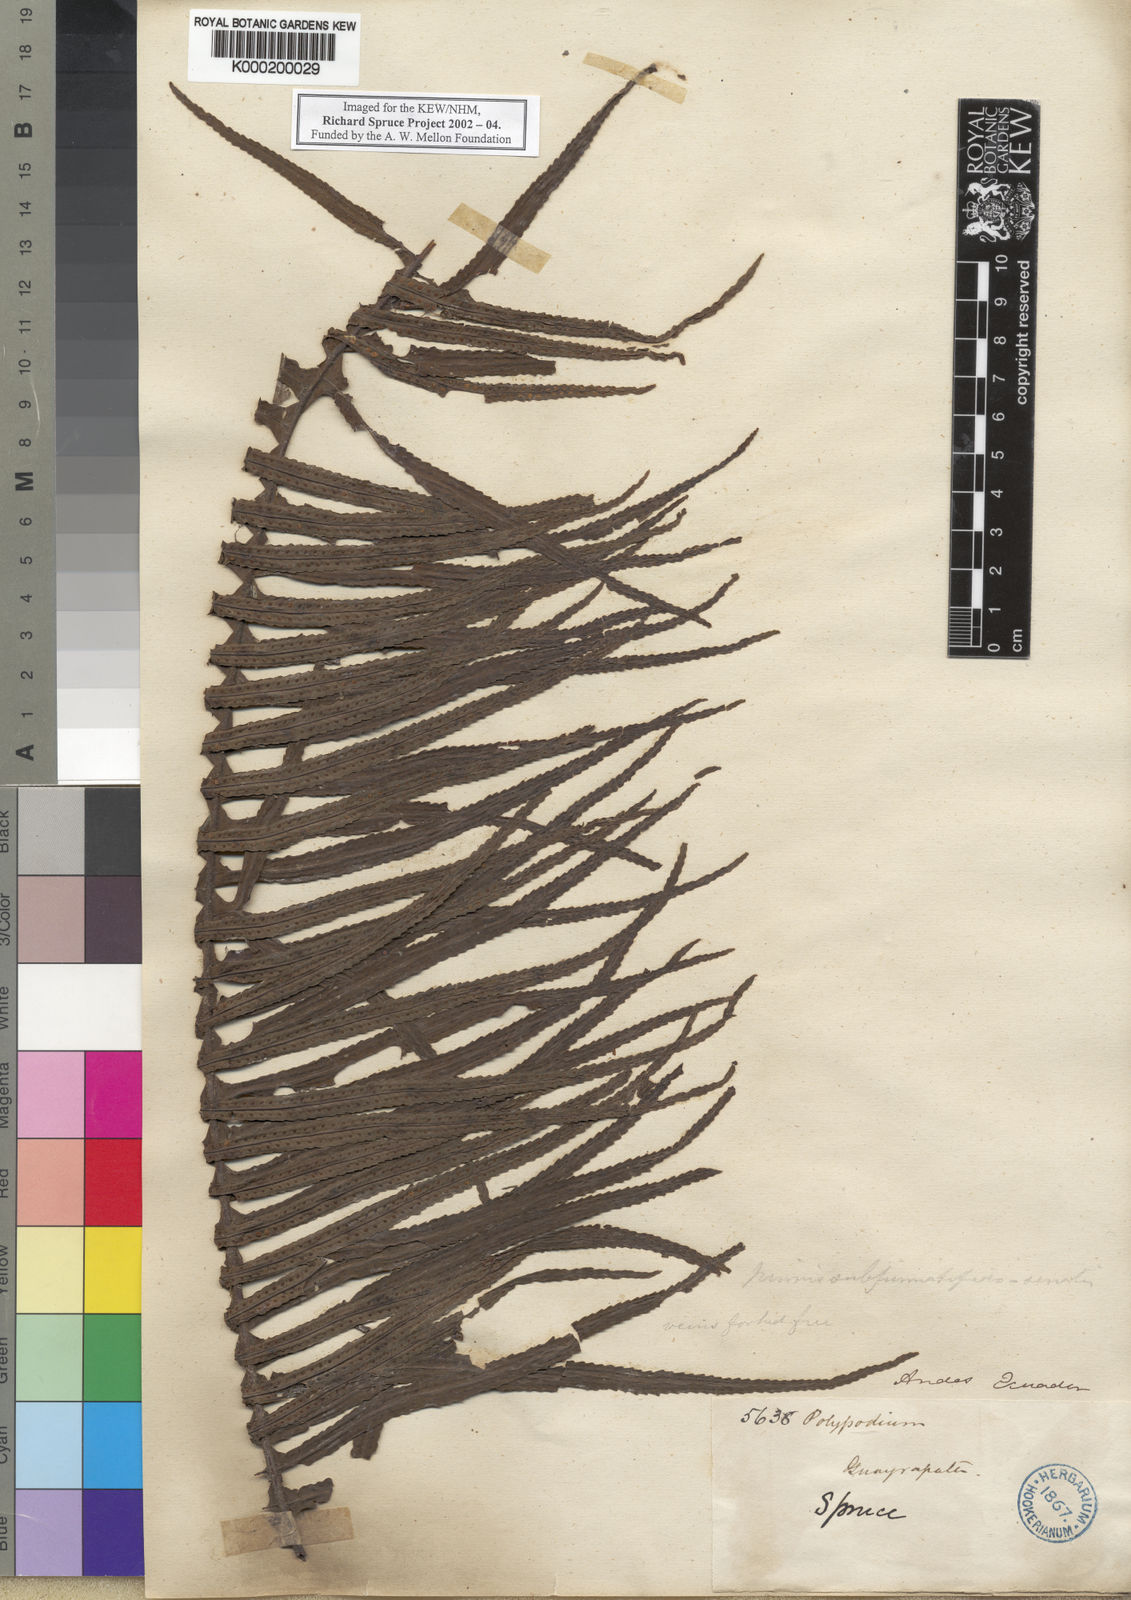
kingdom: Plantae
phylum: Tracheophyta
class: Polypodiopsida
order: Polypodiales
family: Polypodiaceae
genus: Pecluma
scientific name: Pecluma divaricata
